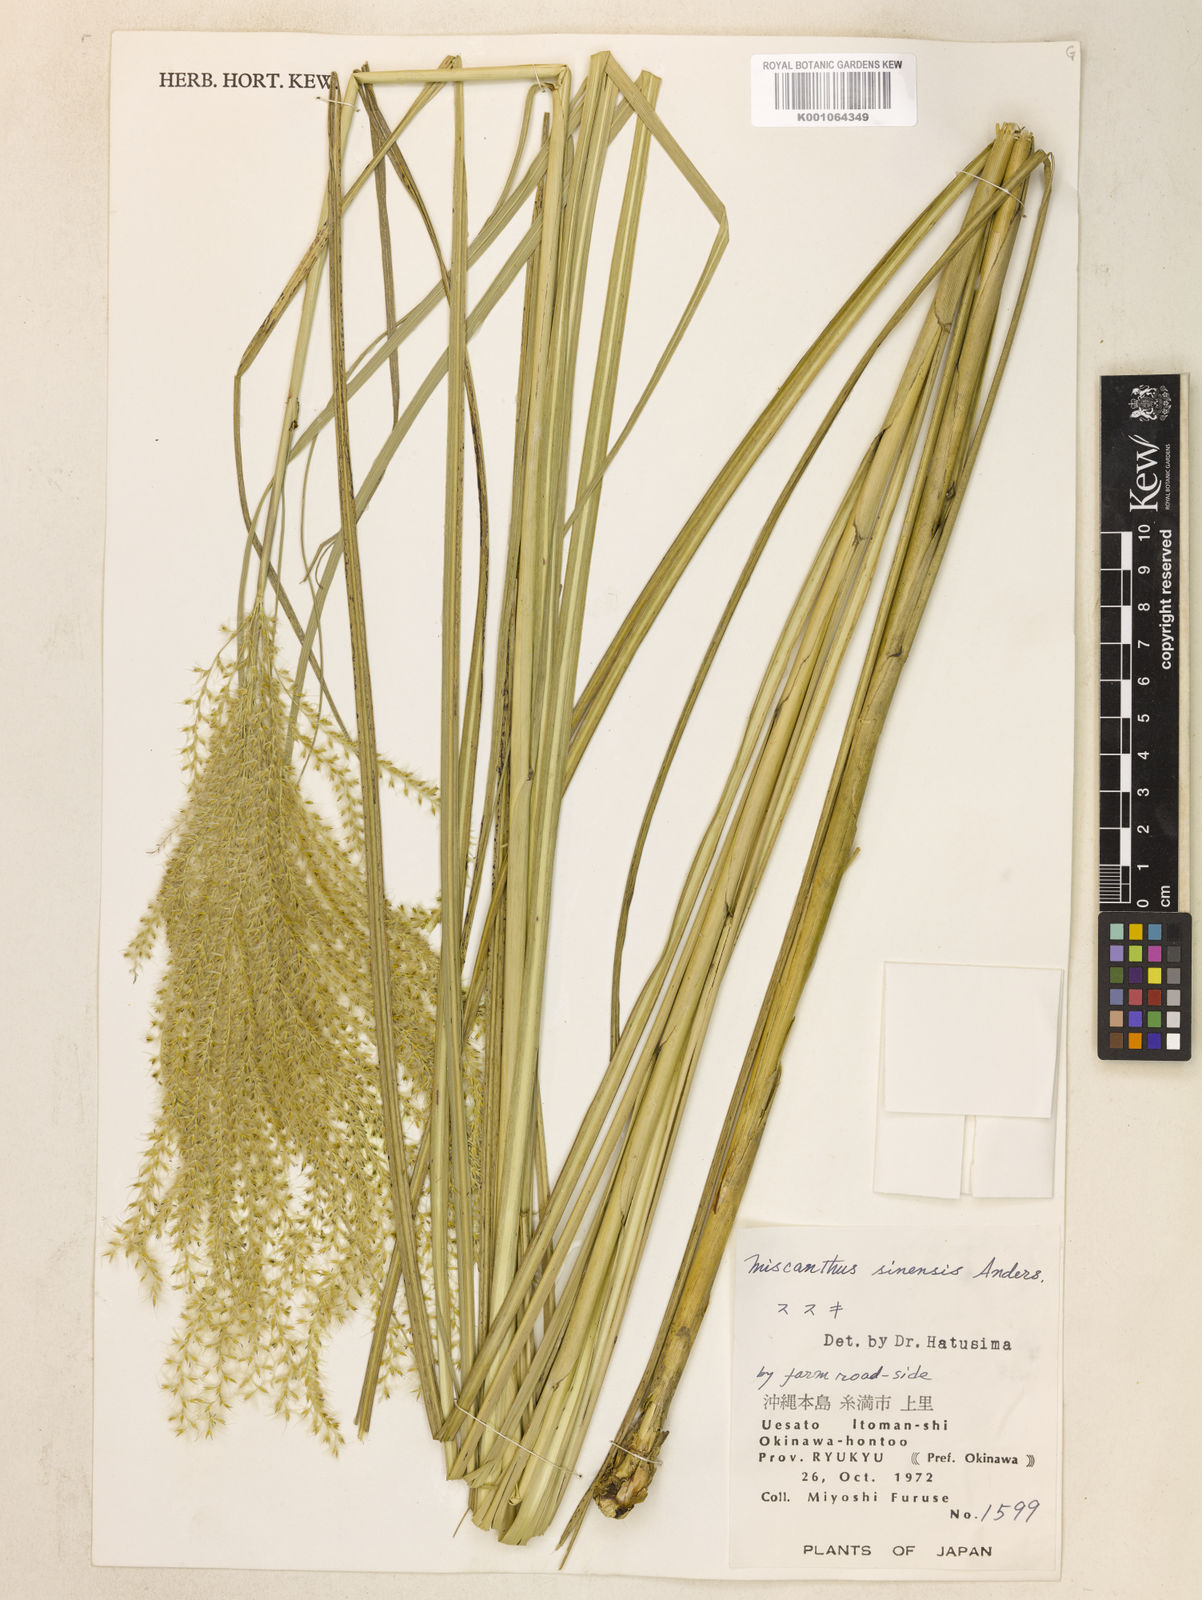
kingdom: Plantae
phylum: Tracheophyta
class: Liliopsida
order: Poales
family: Poaceae
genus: Miscanthus
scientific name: Miscanthus sinensis
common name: Chinese silvergrass
